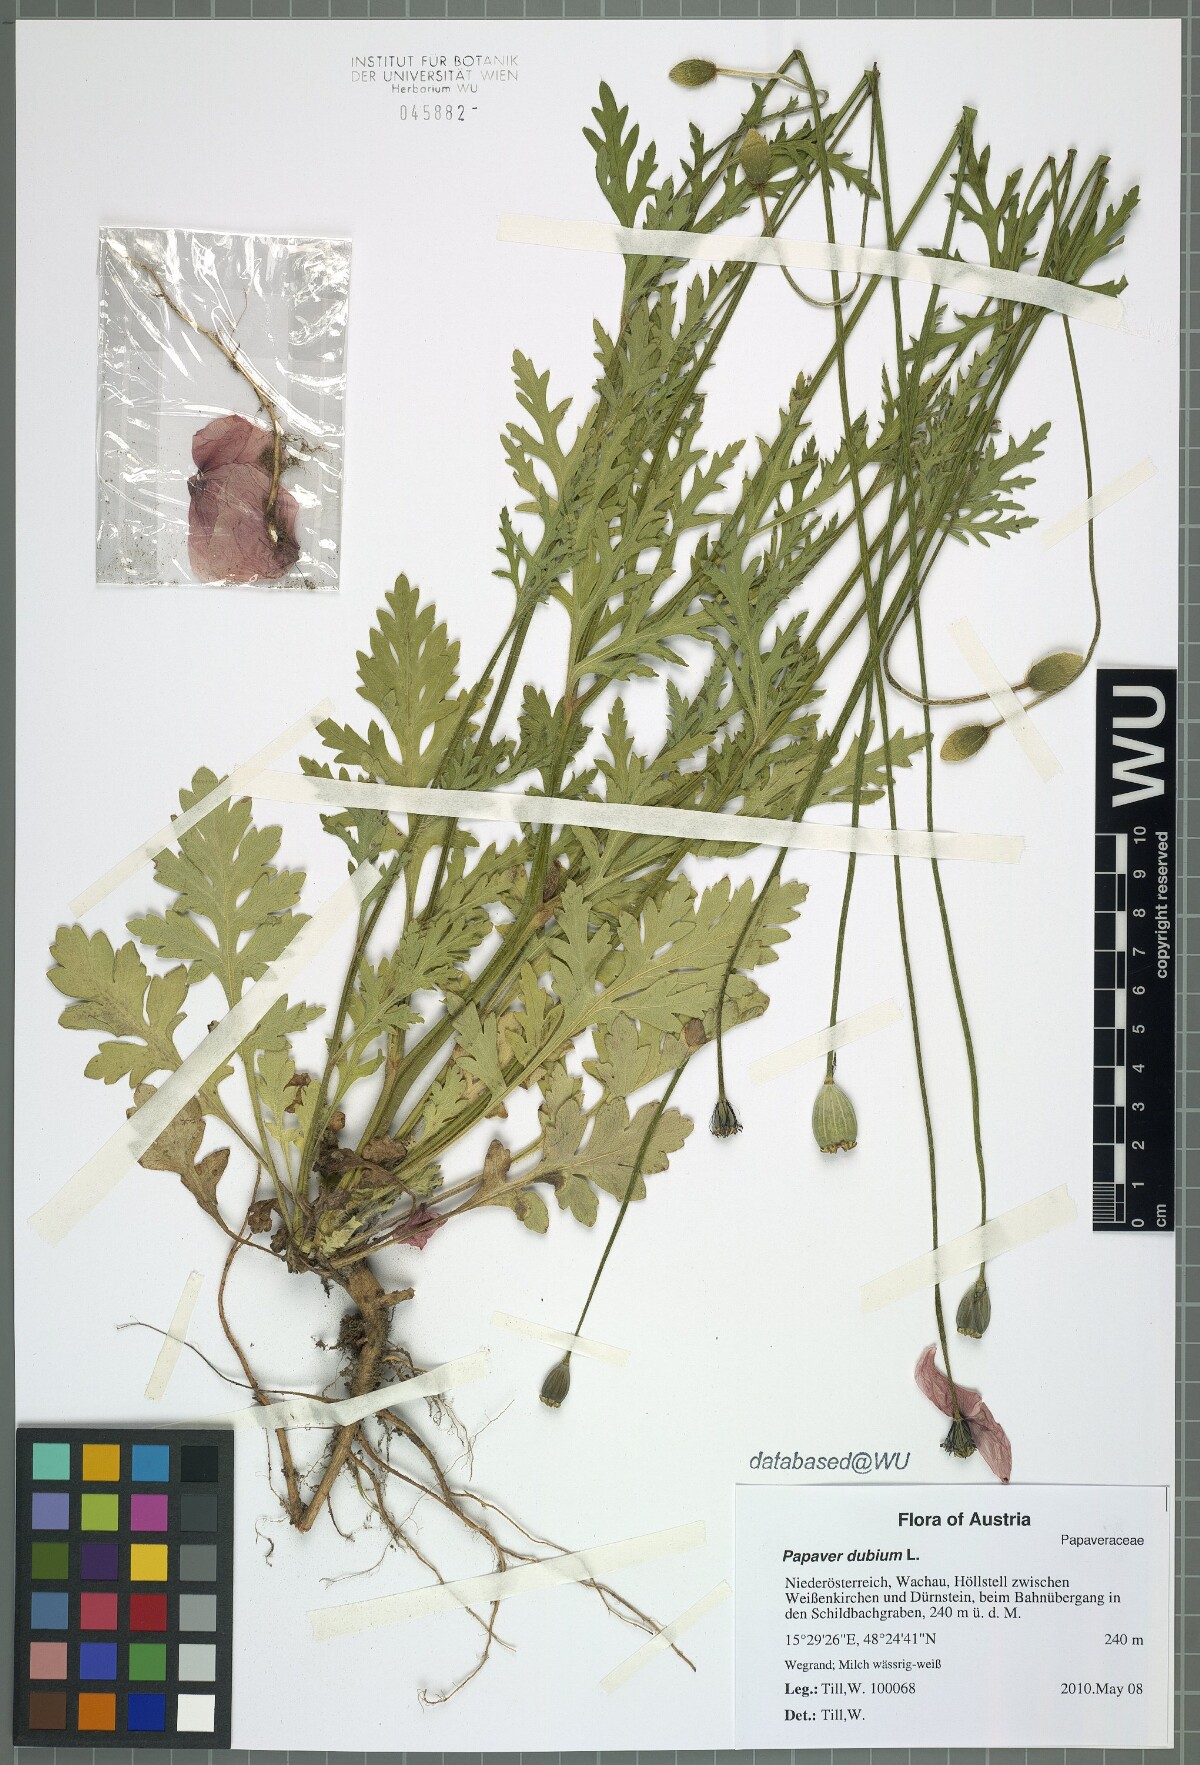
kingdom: Plantae
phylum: Tracheophyta
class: Magnoliopsida
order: Ranunculales
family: Papaveraceae
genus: Papaver
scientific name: Papaver dubium
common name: Long-headed poppy
